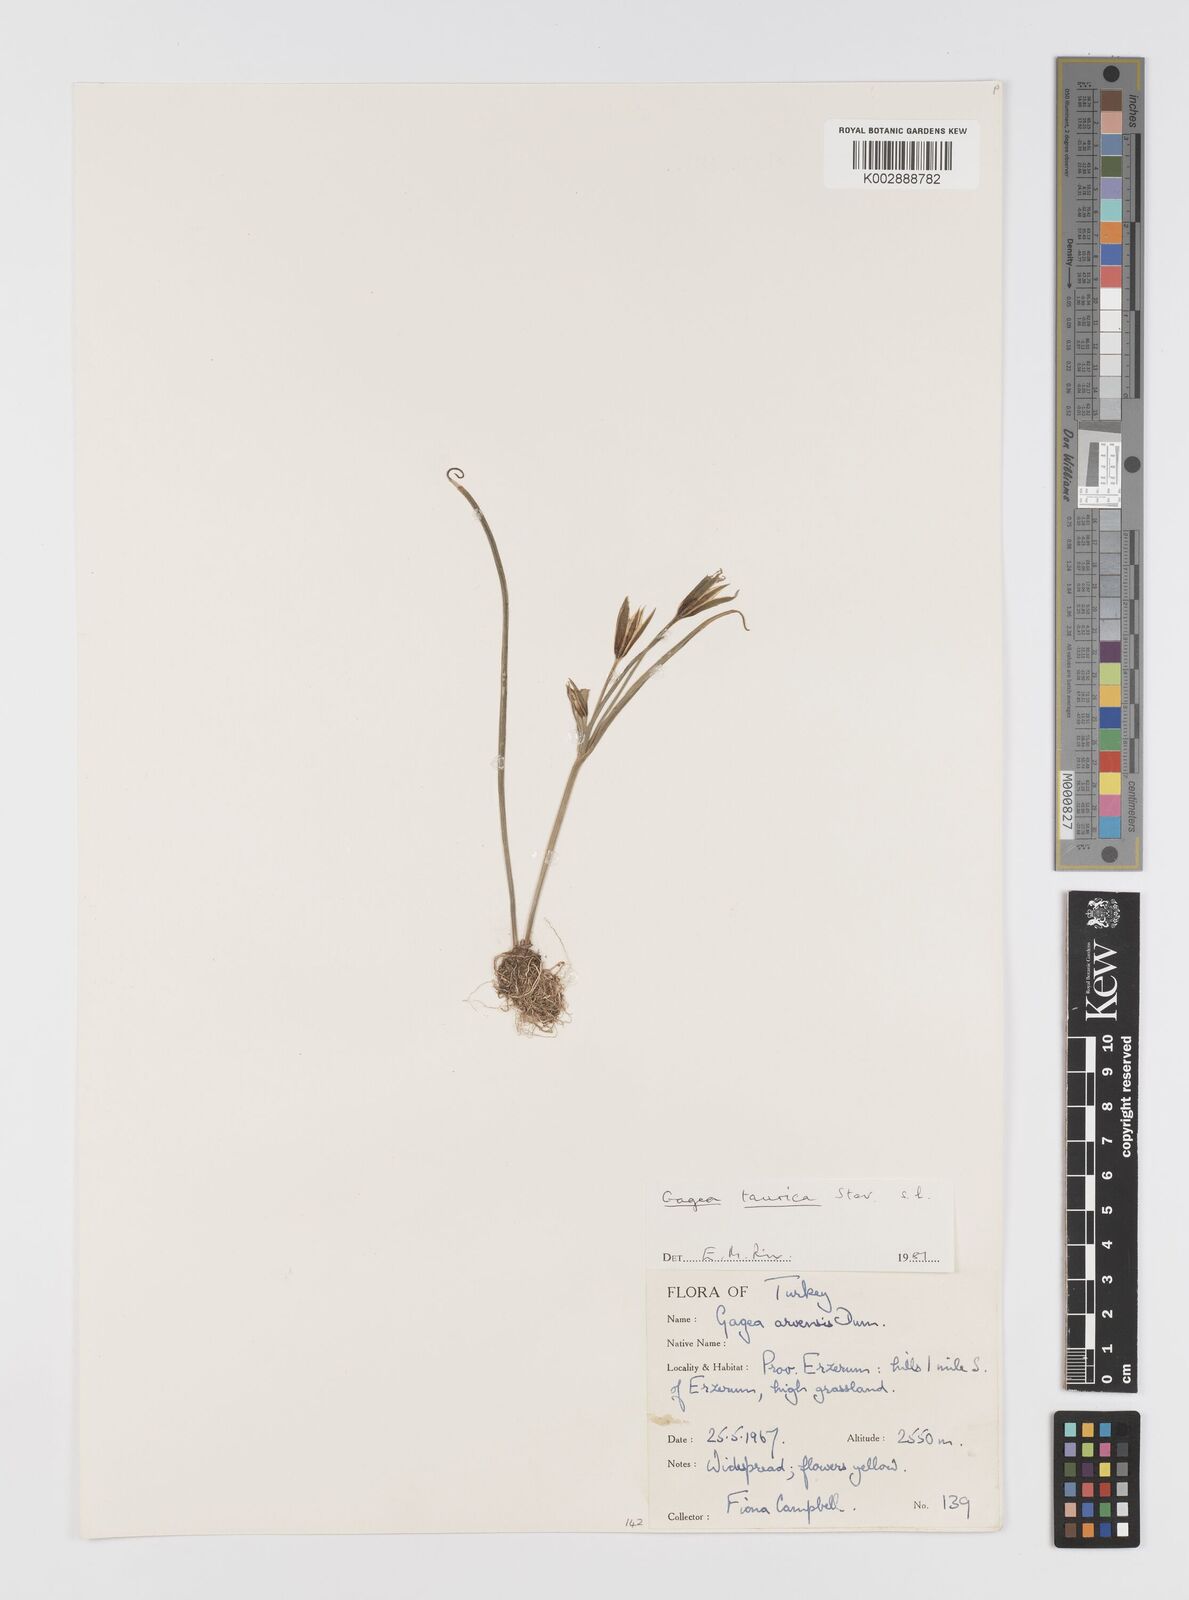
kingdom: Plantae
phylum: Tracheophyta
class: Liliopsida
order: Liliales
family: Liliaceae
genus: Gagea
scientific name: Gagea taurica
